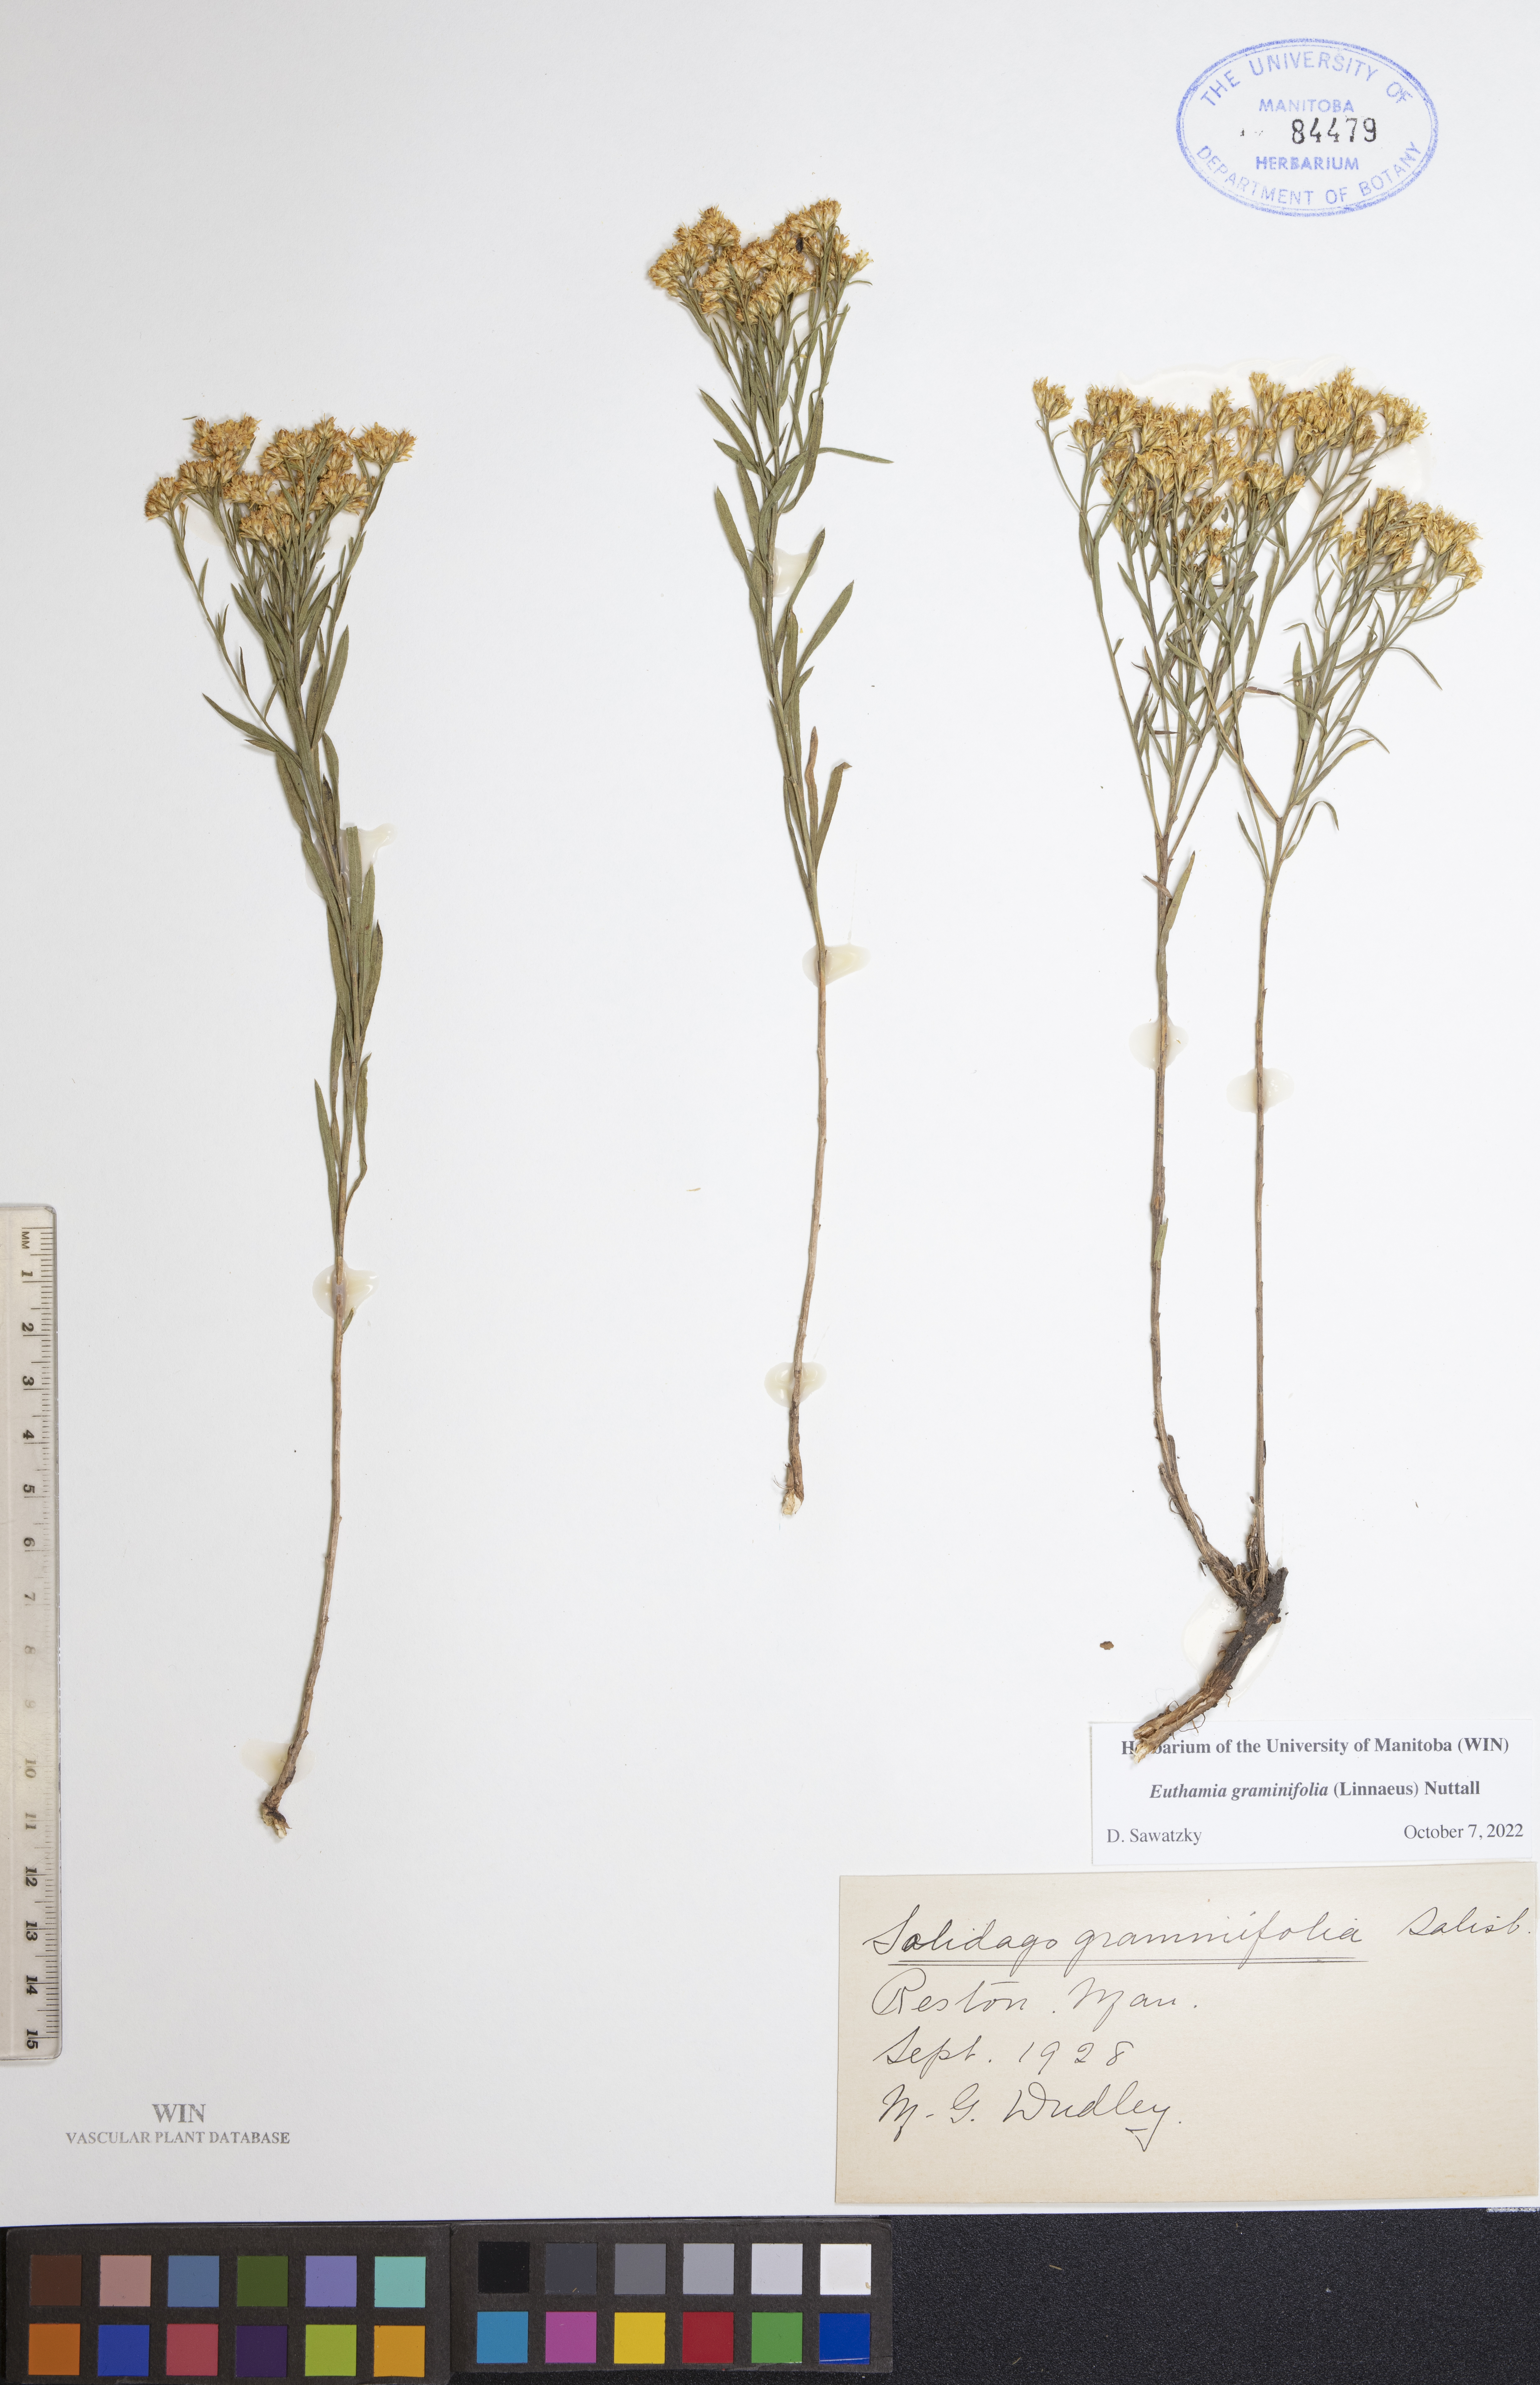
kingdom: Plantae
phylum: Tracheophyta
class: Magnoliopsida
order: Asterales
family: Asteraceae
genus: Euthamia
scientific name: Euthamia graminifolia
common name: Common goldentop
